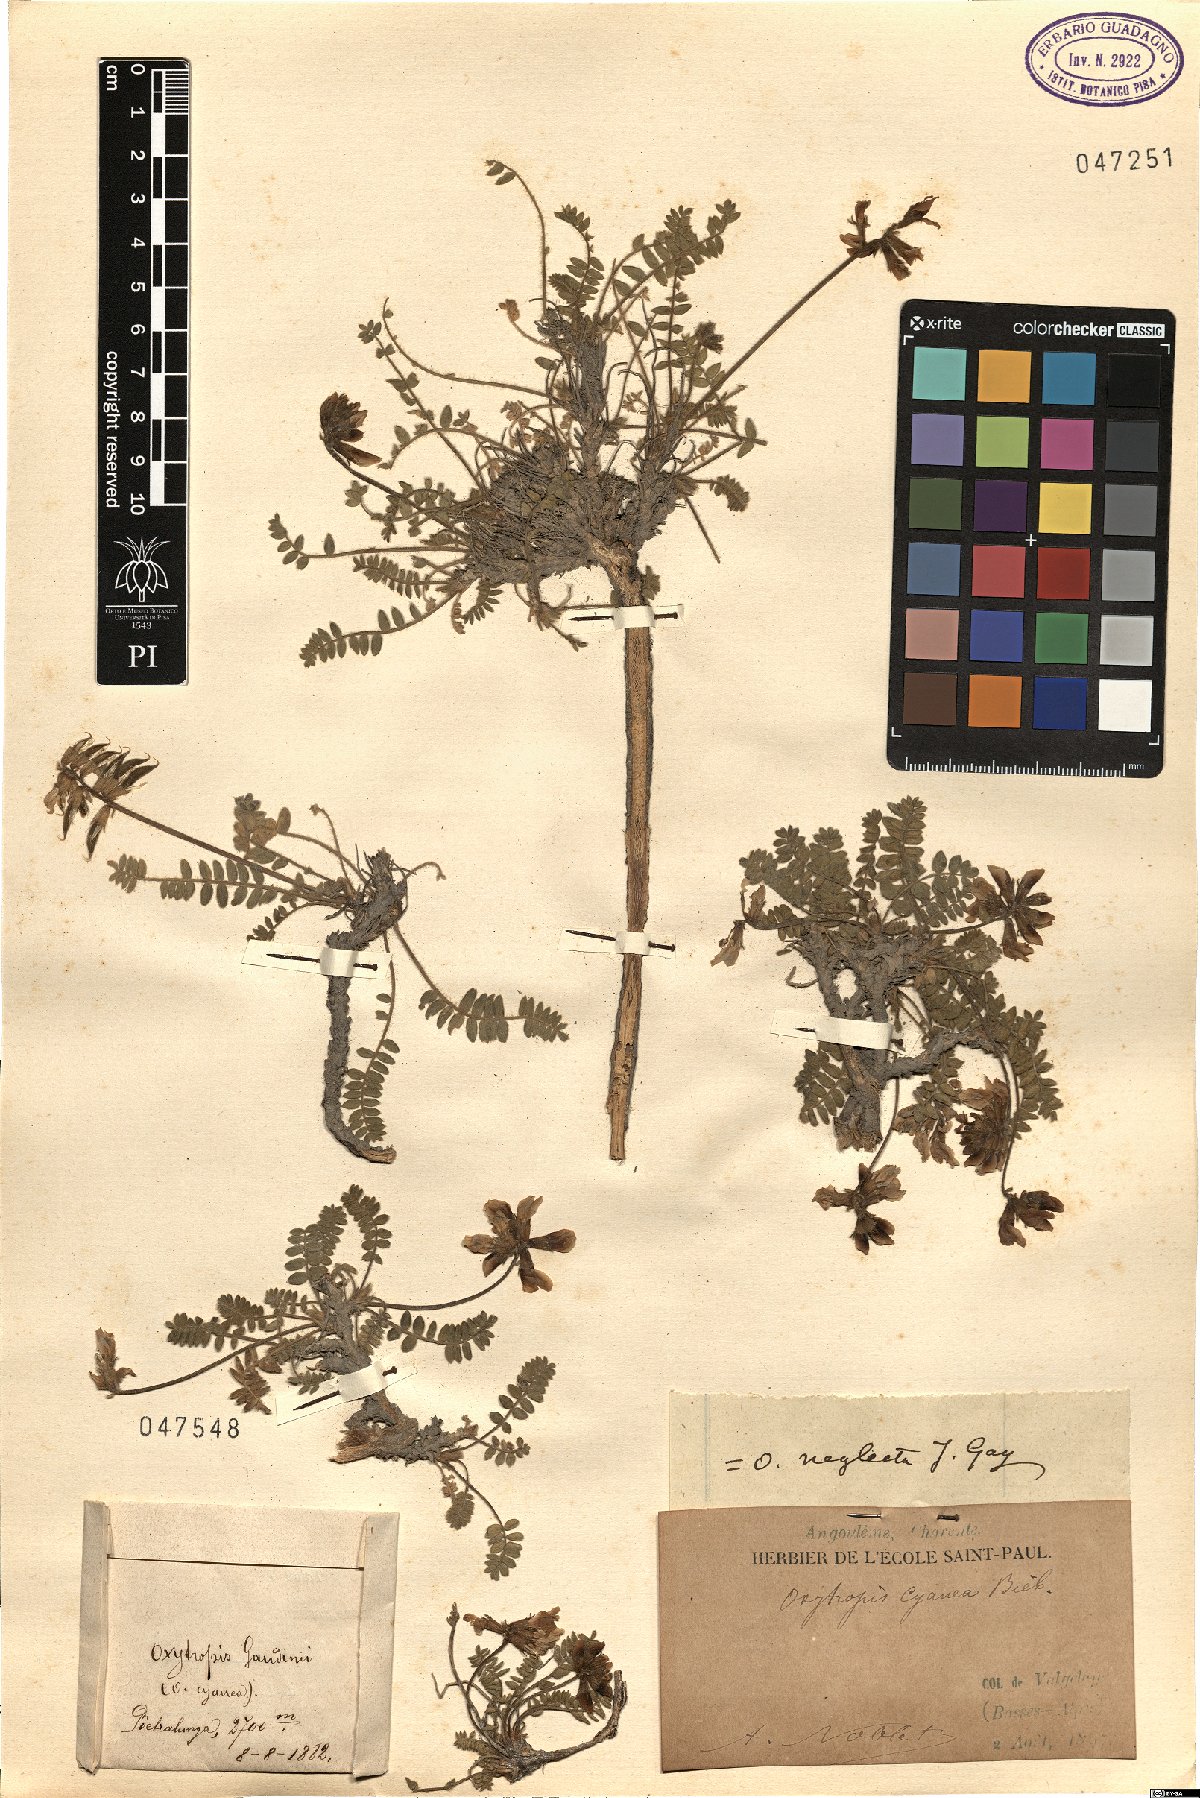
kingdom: Plantae
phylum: Tracheophyta
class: Magnoliopsida
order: Fabales
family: Fabaceae
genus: Oxytropis
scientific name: Oxytropis helvetica
